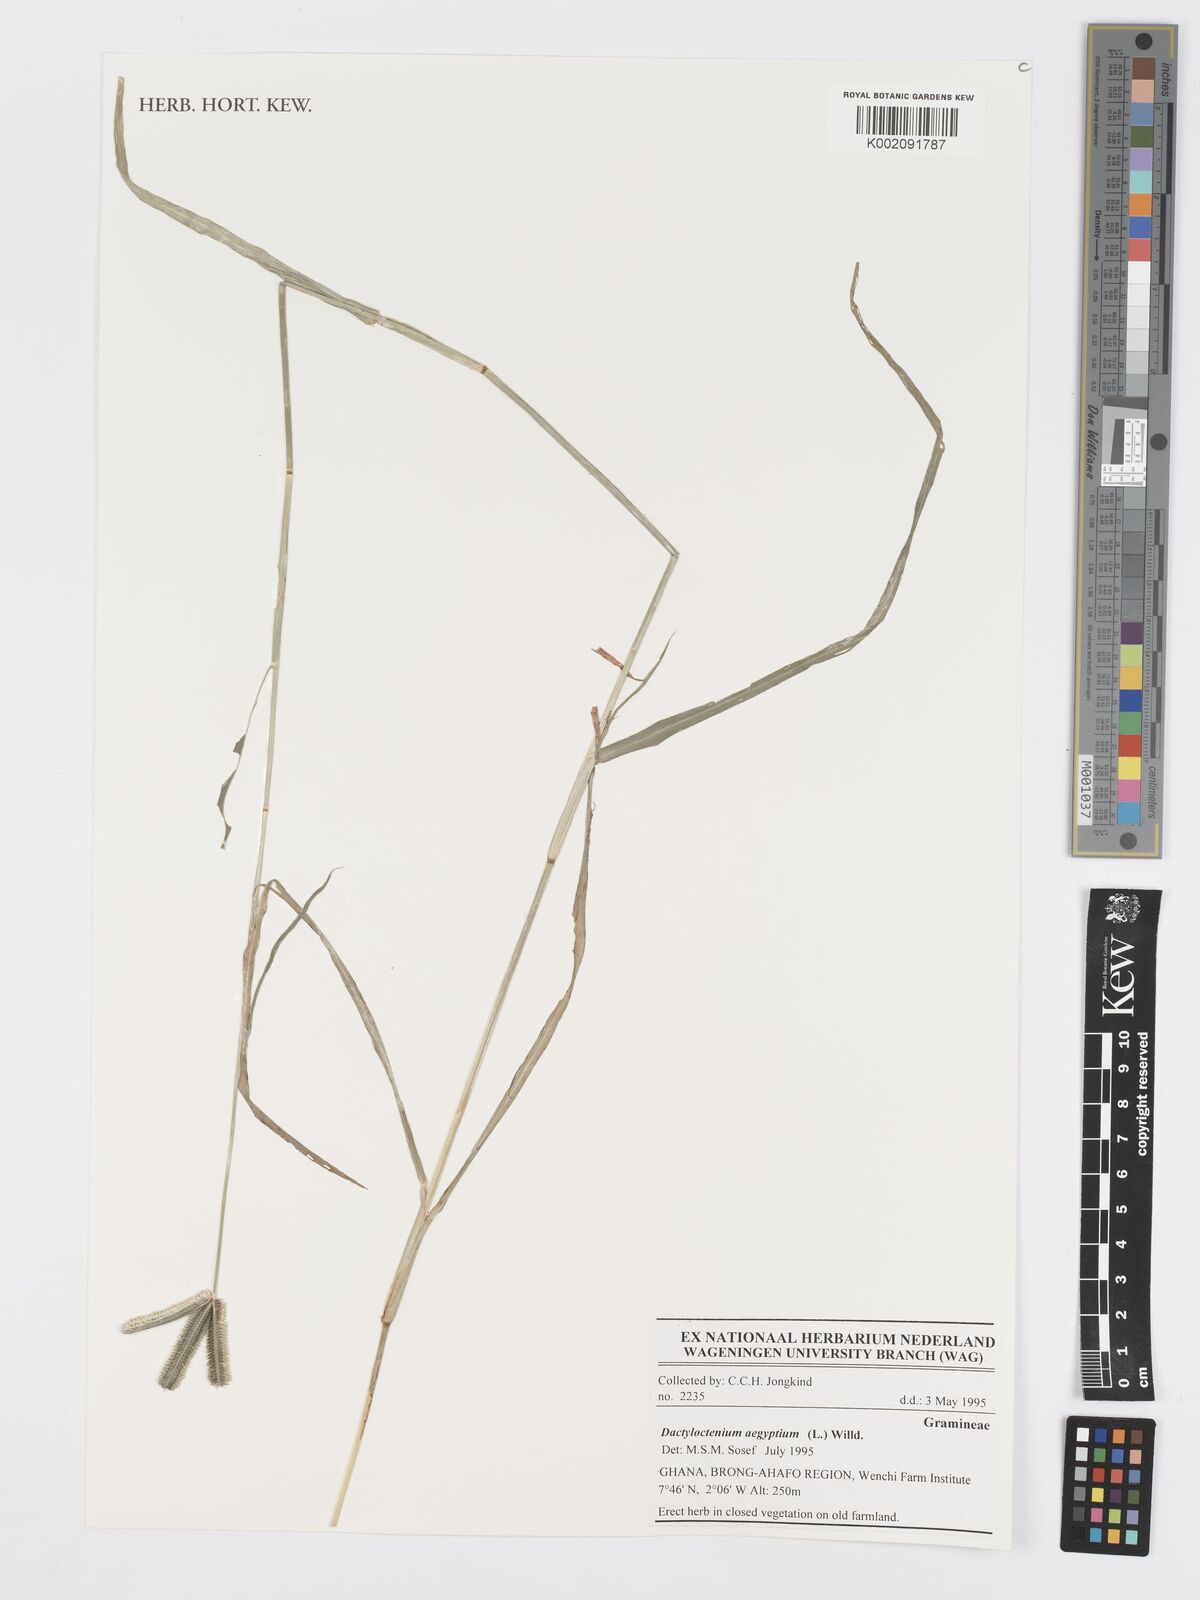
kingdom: Plantae
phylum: Tracheophyta
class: Liliopsida
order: Poales
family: Poaceae
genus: Dactyloctenium
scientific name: Dactyloctenium aegyptium
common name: Egyptian grass
